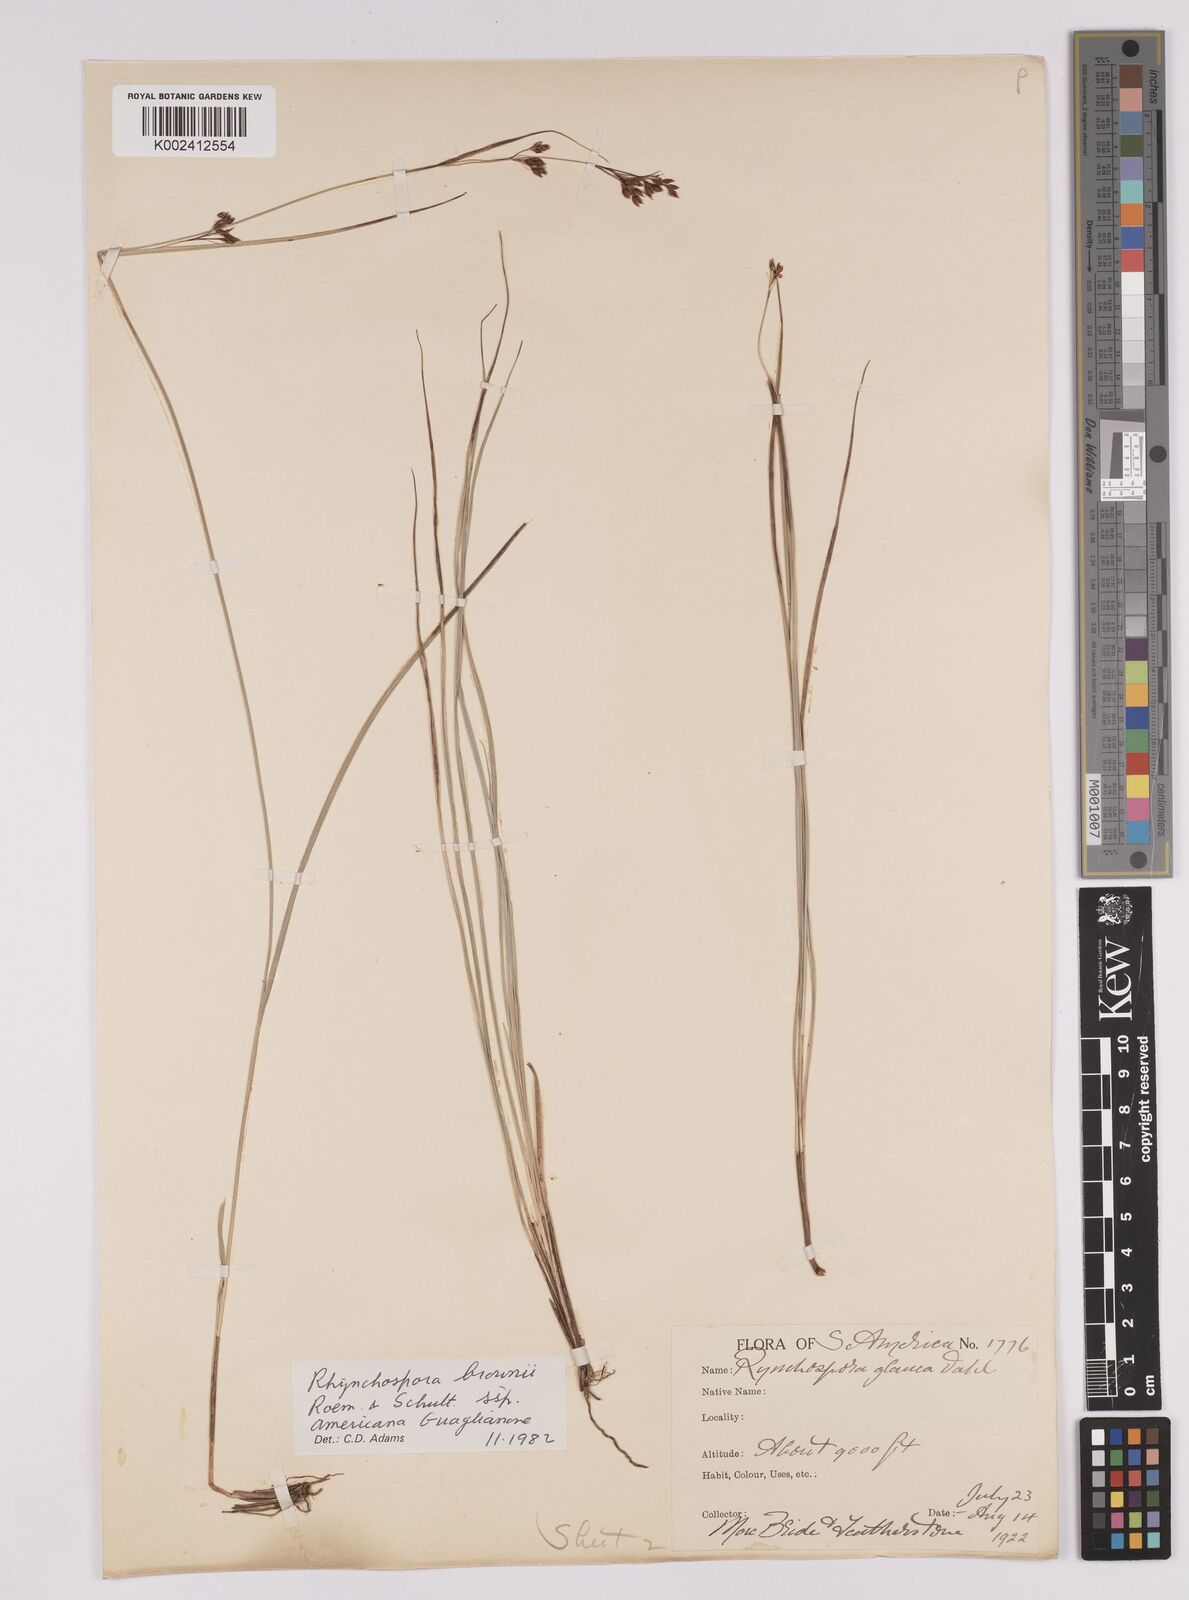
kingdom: Plantae
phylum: Tracheophyta
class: Liliopsida
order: Poales
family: Cyperaceae
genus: Rhynchospora
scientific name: Rhynchospora rugosa
